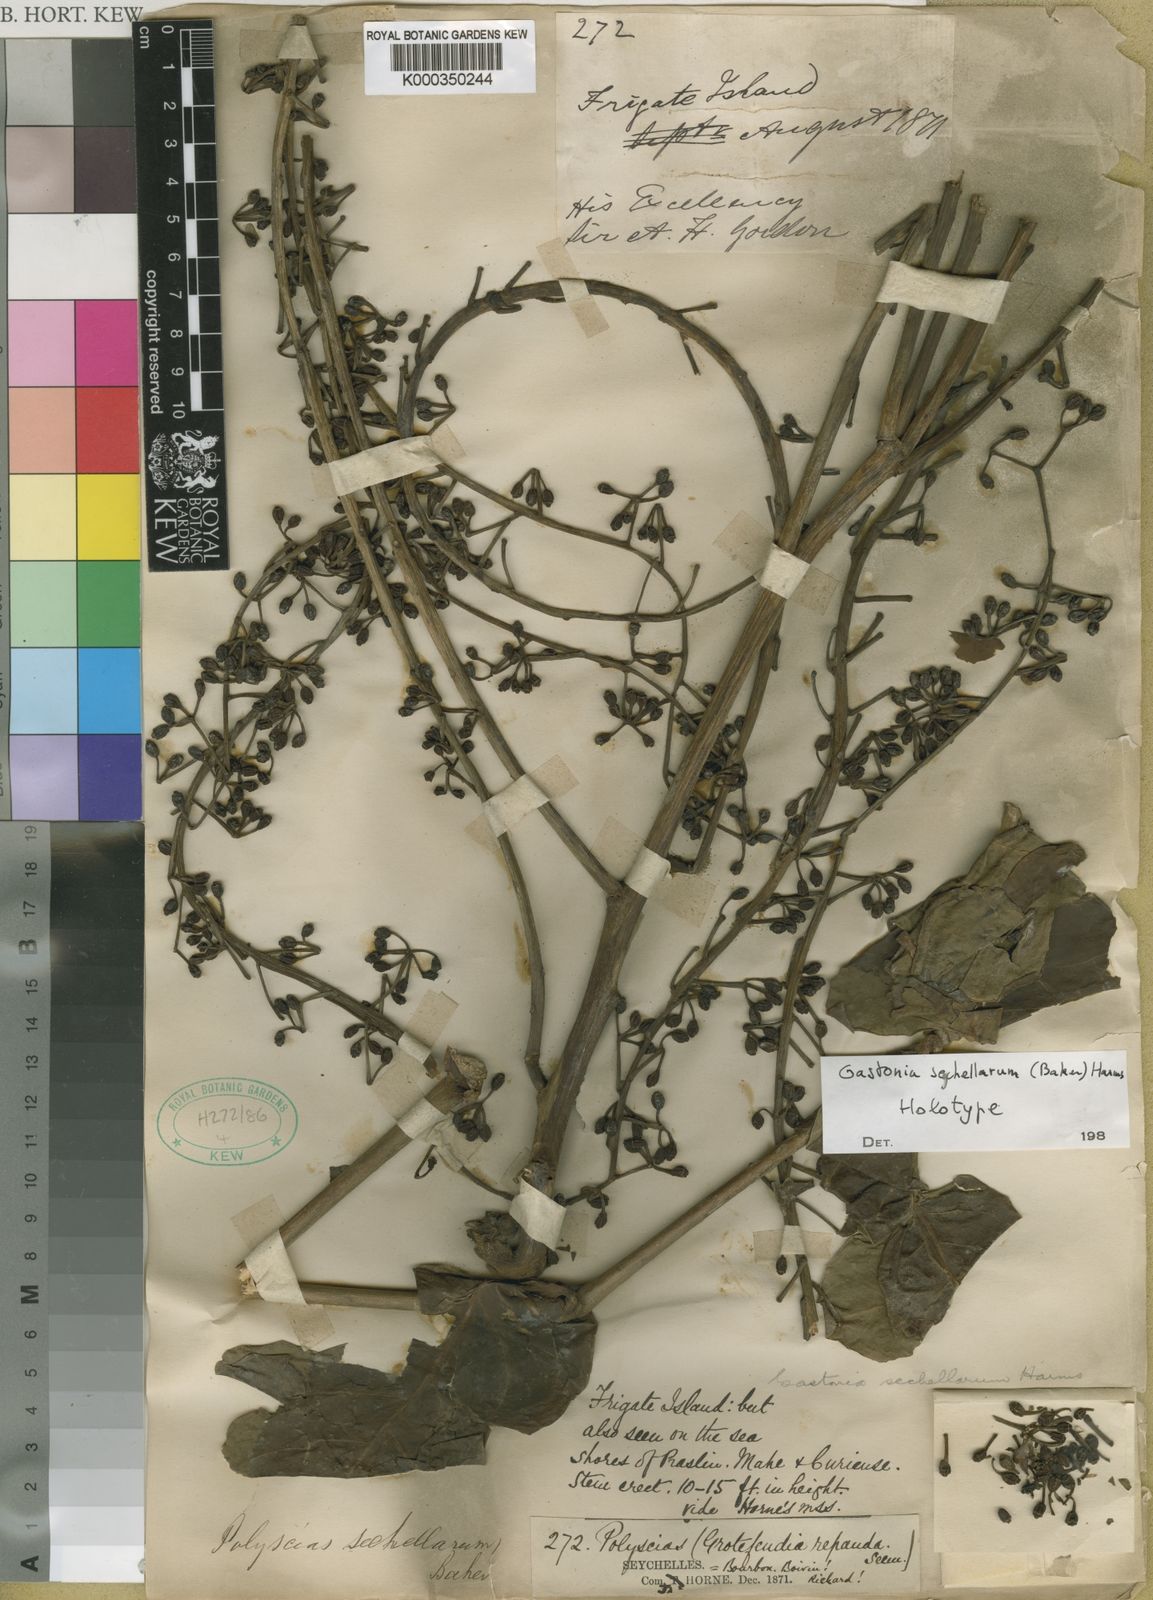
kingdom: Plantae
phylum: Tracheophyta
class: Magnoliopsida
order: Apiales
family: Araliaceae
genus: Polyscias
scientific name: Polyscias sechellarum
